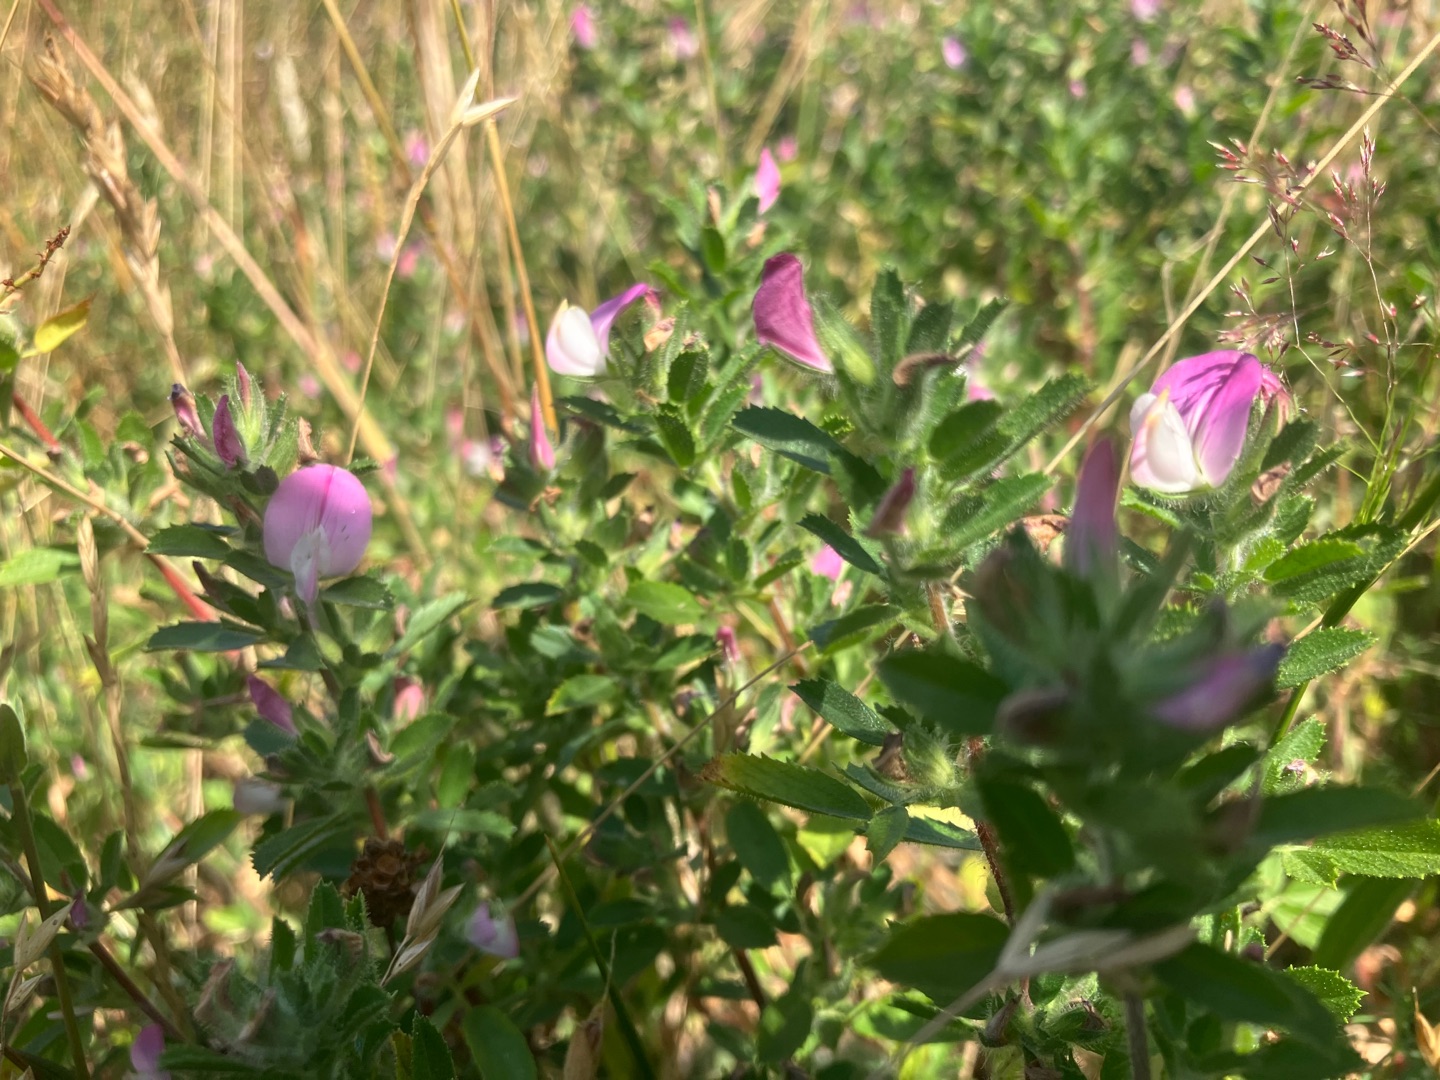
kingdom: Plantae
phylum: Tracheophyta
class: Magnoliopsida
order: Fabales
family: Fabaceae
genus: Ononis
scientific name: Ononis spinosa
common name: Mark-krageklo
